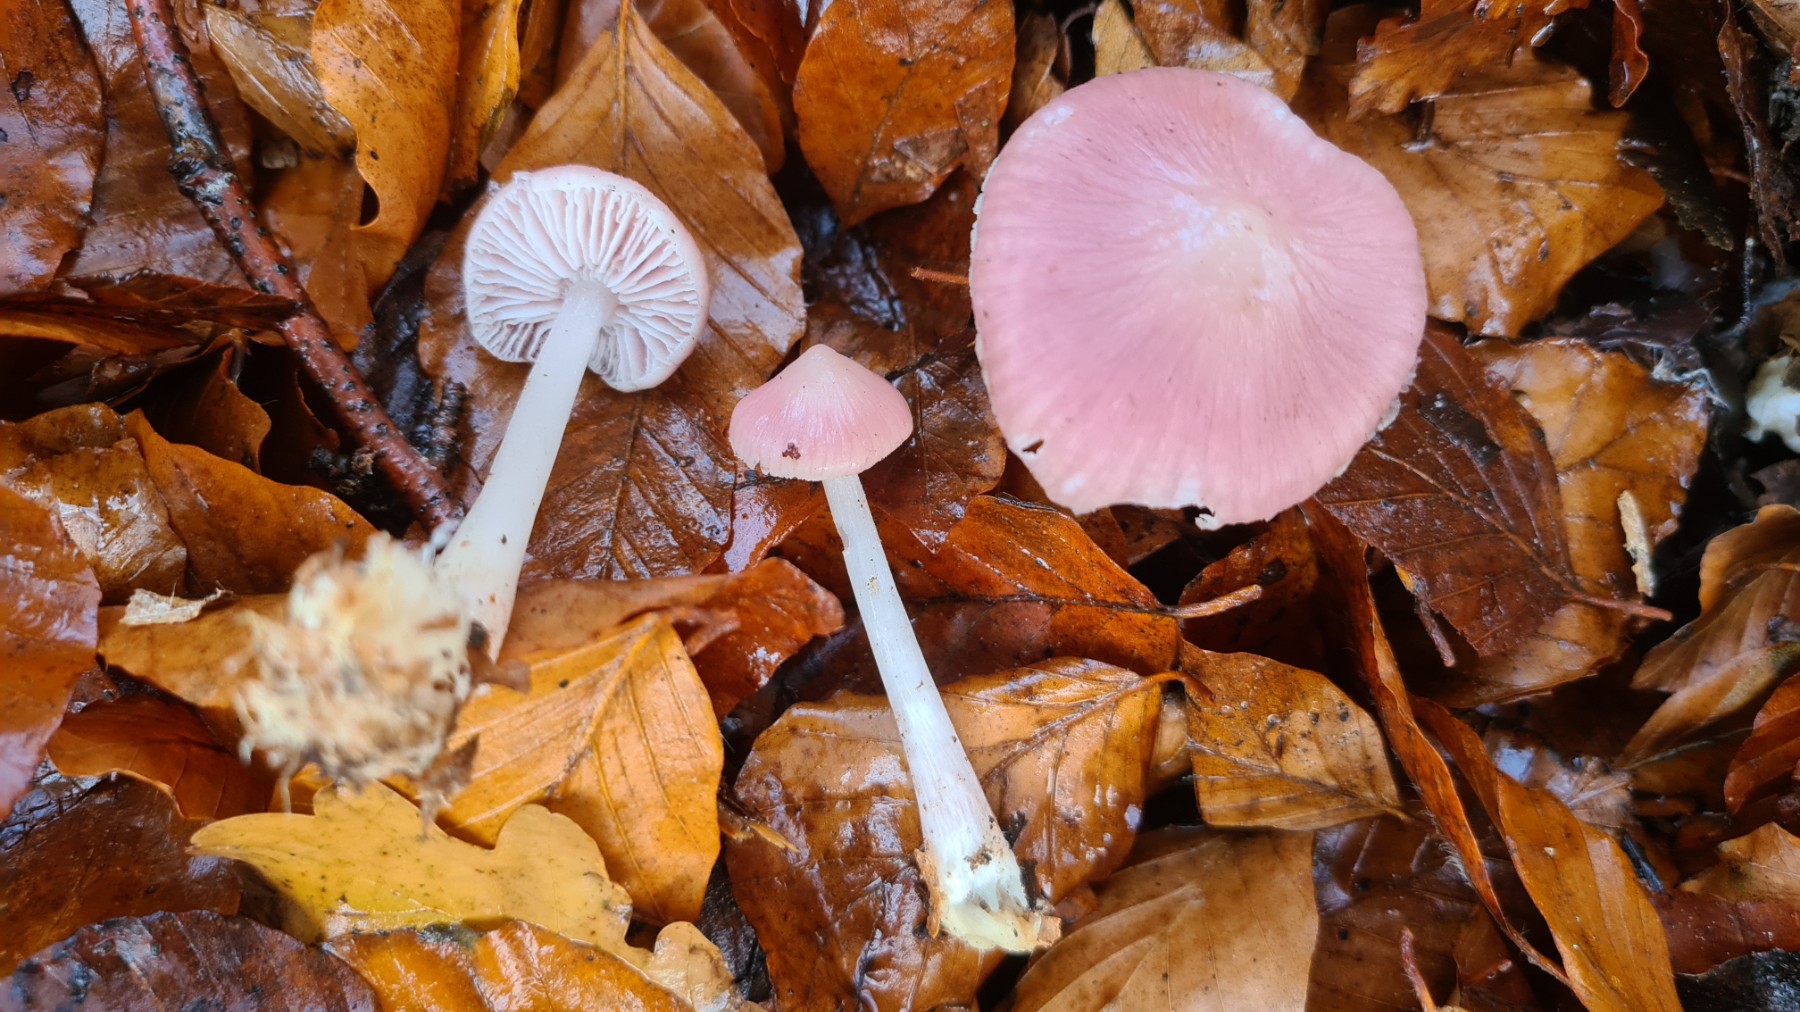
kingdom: Fungi
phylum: Basidiomycota
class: Agaricomycetes
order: Agaricales
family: Mycenaceae
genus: Mycena
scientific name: Mycena rosea
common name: rosa huesvamp
